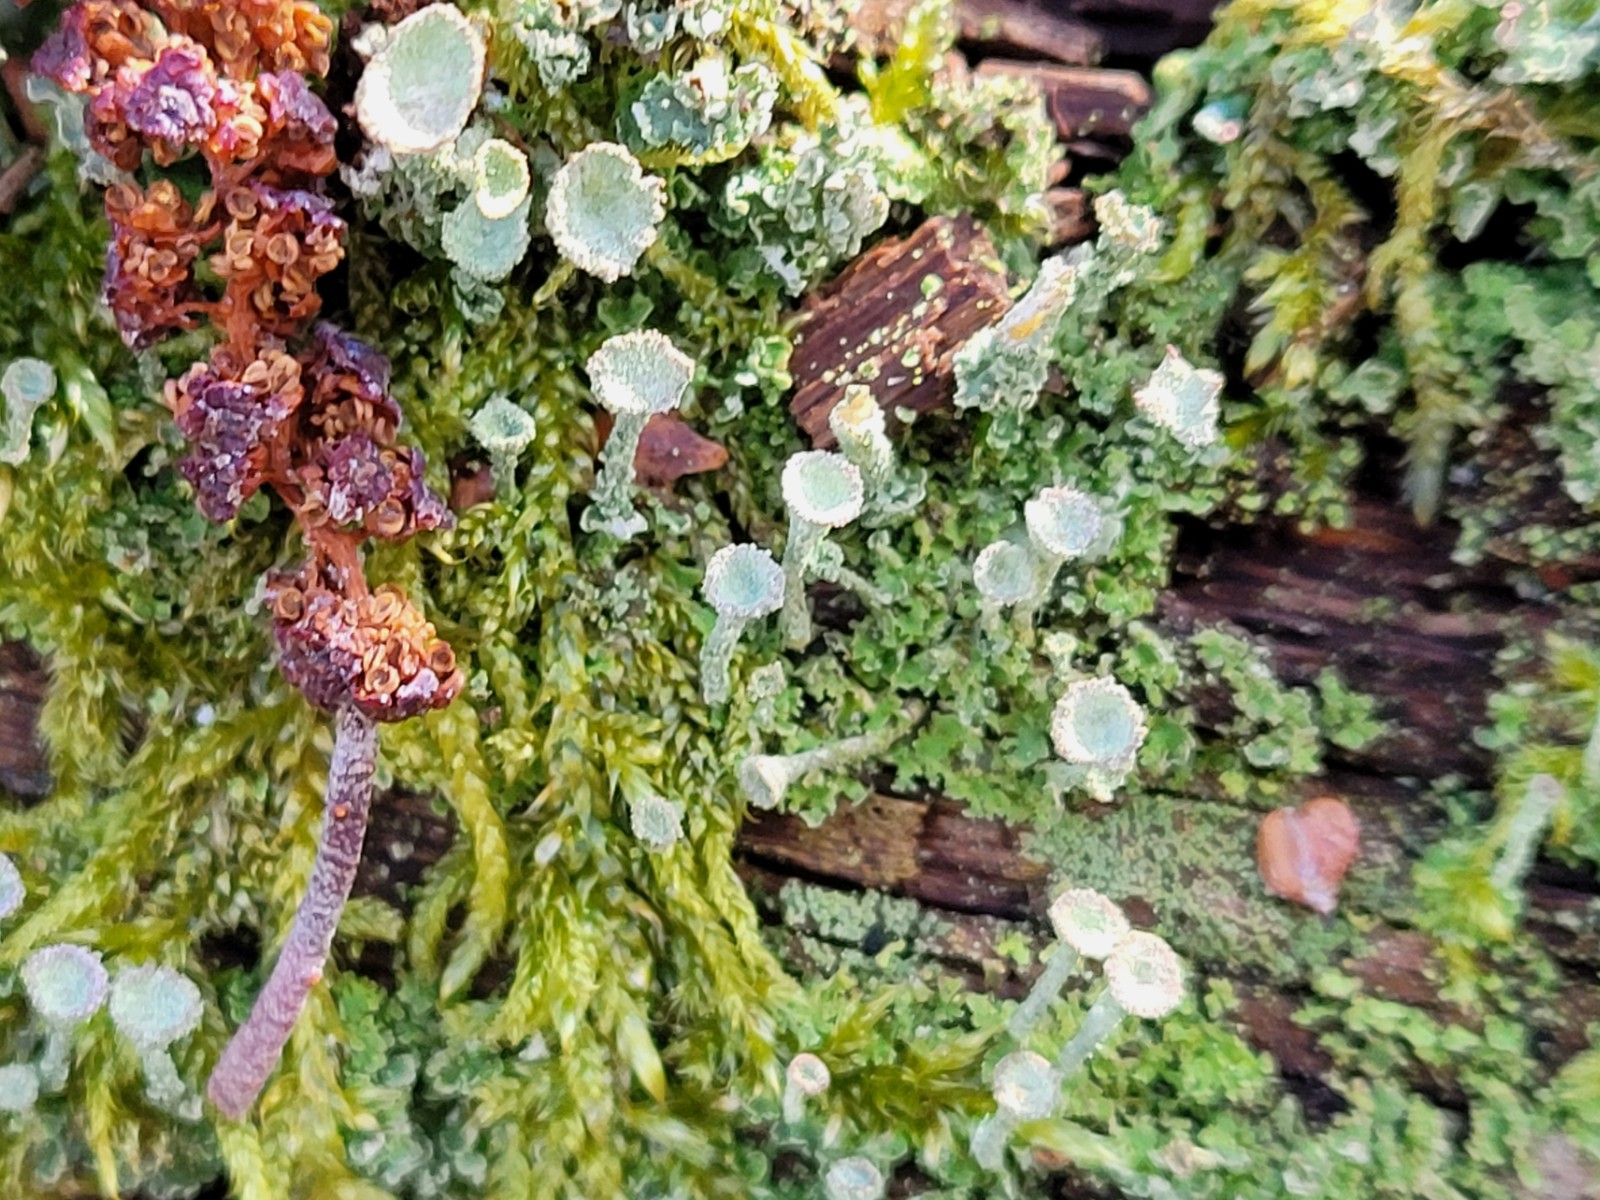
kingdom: Fungi
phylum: Ascomycota
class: Lecanoromycetes
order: Lecanorales
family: Cladoniaceae
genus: Cladonia
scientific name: Cladonia chlorophaea
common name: Mealy pixie cup
